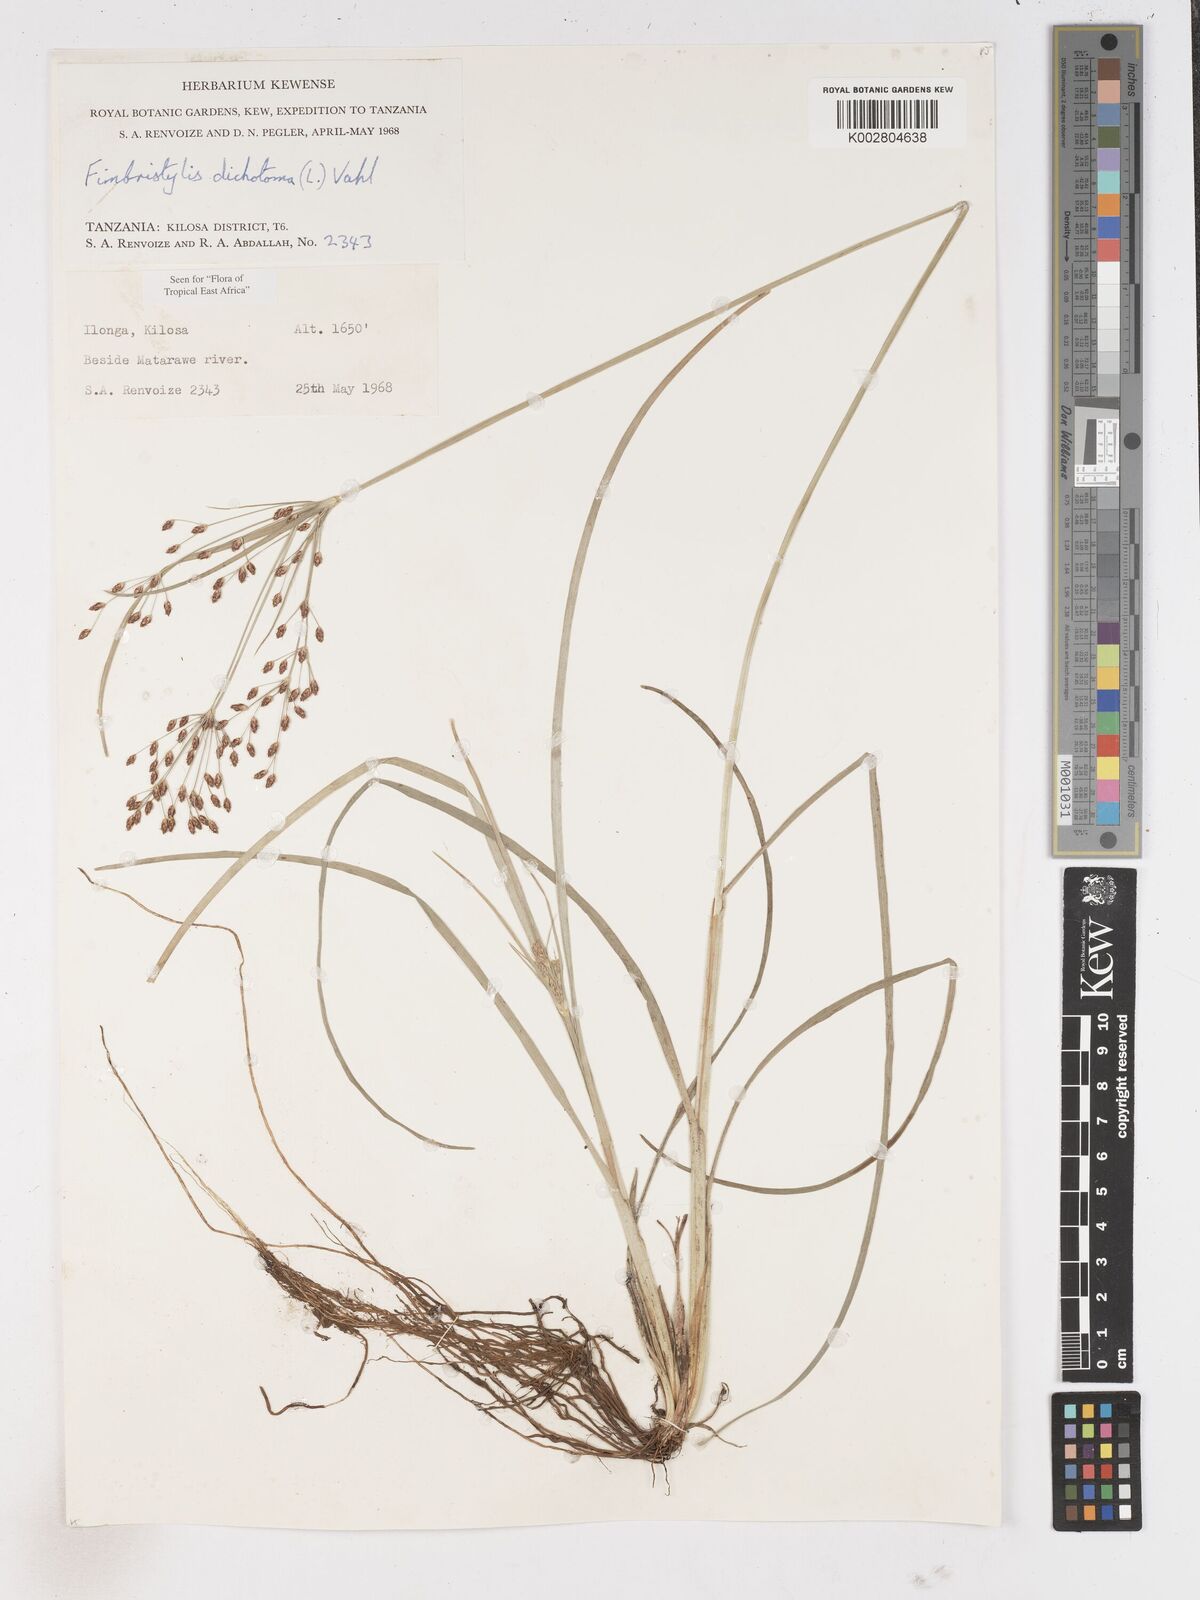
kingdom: Plantae
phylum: Tracheophyta
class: Liliopsida
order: Poales
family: Cyperaceae
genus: Fimbristylis
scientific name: Fimbristylis dichotoma
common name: Forked fimbry
